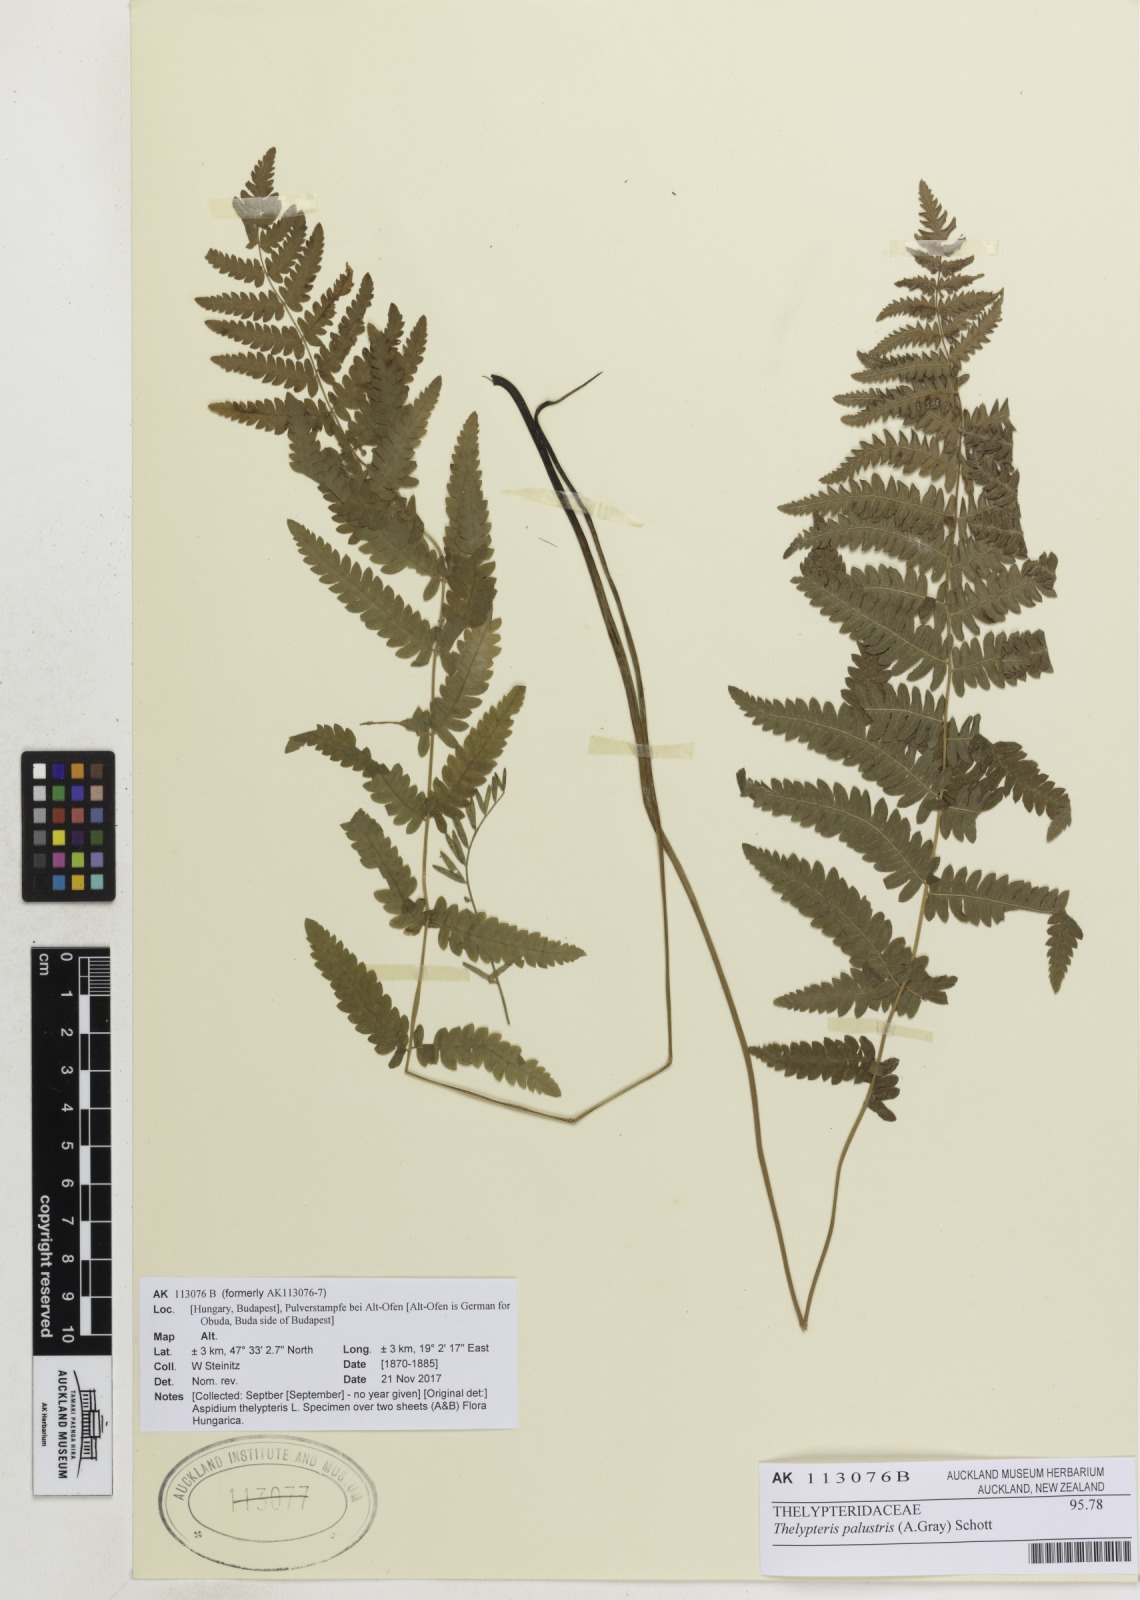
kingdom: Plantae
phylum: Tracheophyta
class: Polypodiopsida
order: Polypodiales
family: Thelypteridaceae
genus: Thelypteris
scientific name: Thelypteris palustris
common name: Marsh fern
